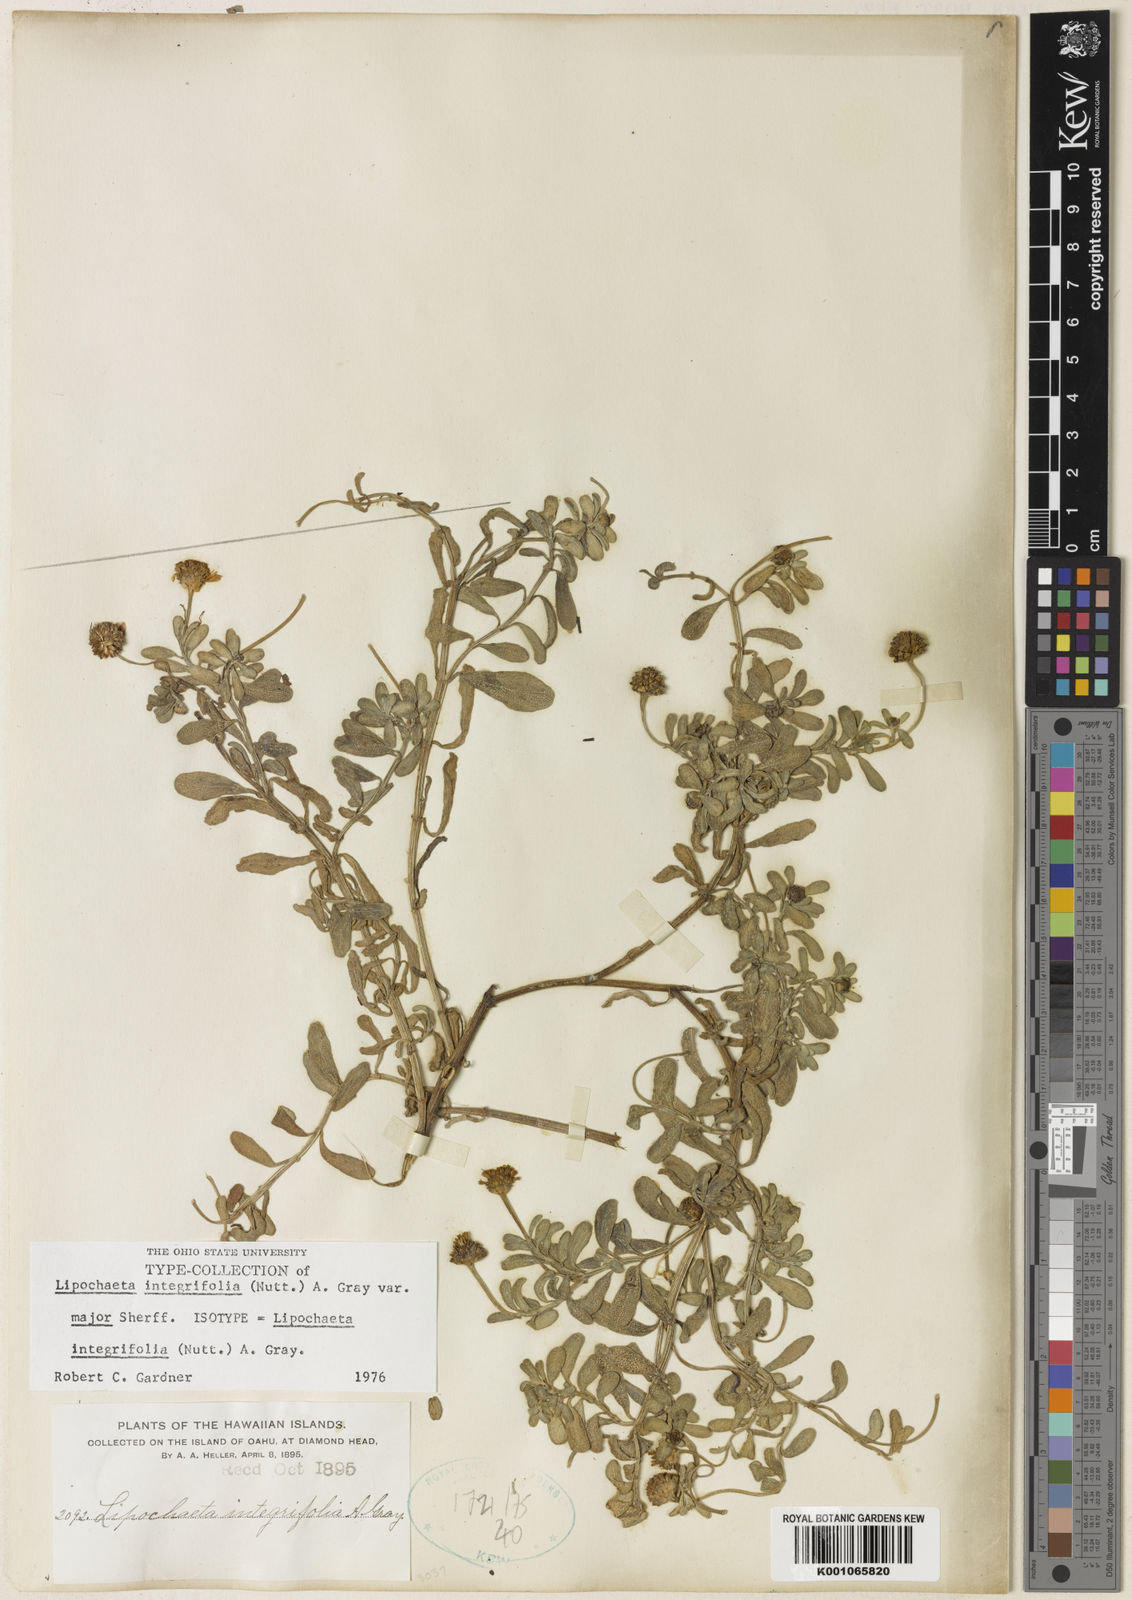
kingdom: Plantae
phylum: Tracheophyta
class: Magnoliopsida
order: Asterales
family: Asteraceae
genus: Lipochaeta
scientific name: Lipochaeta integrifolia
